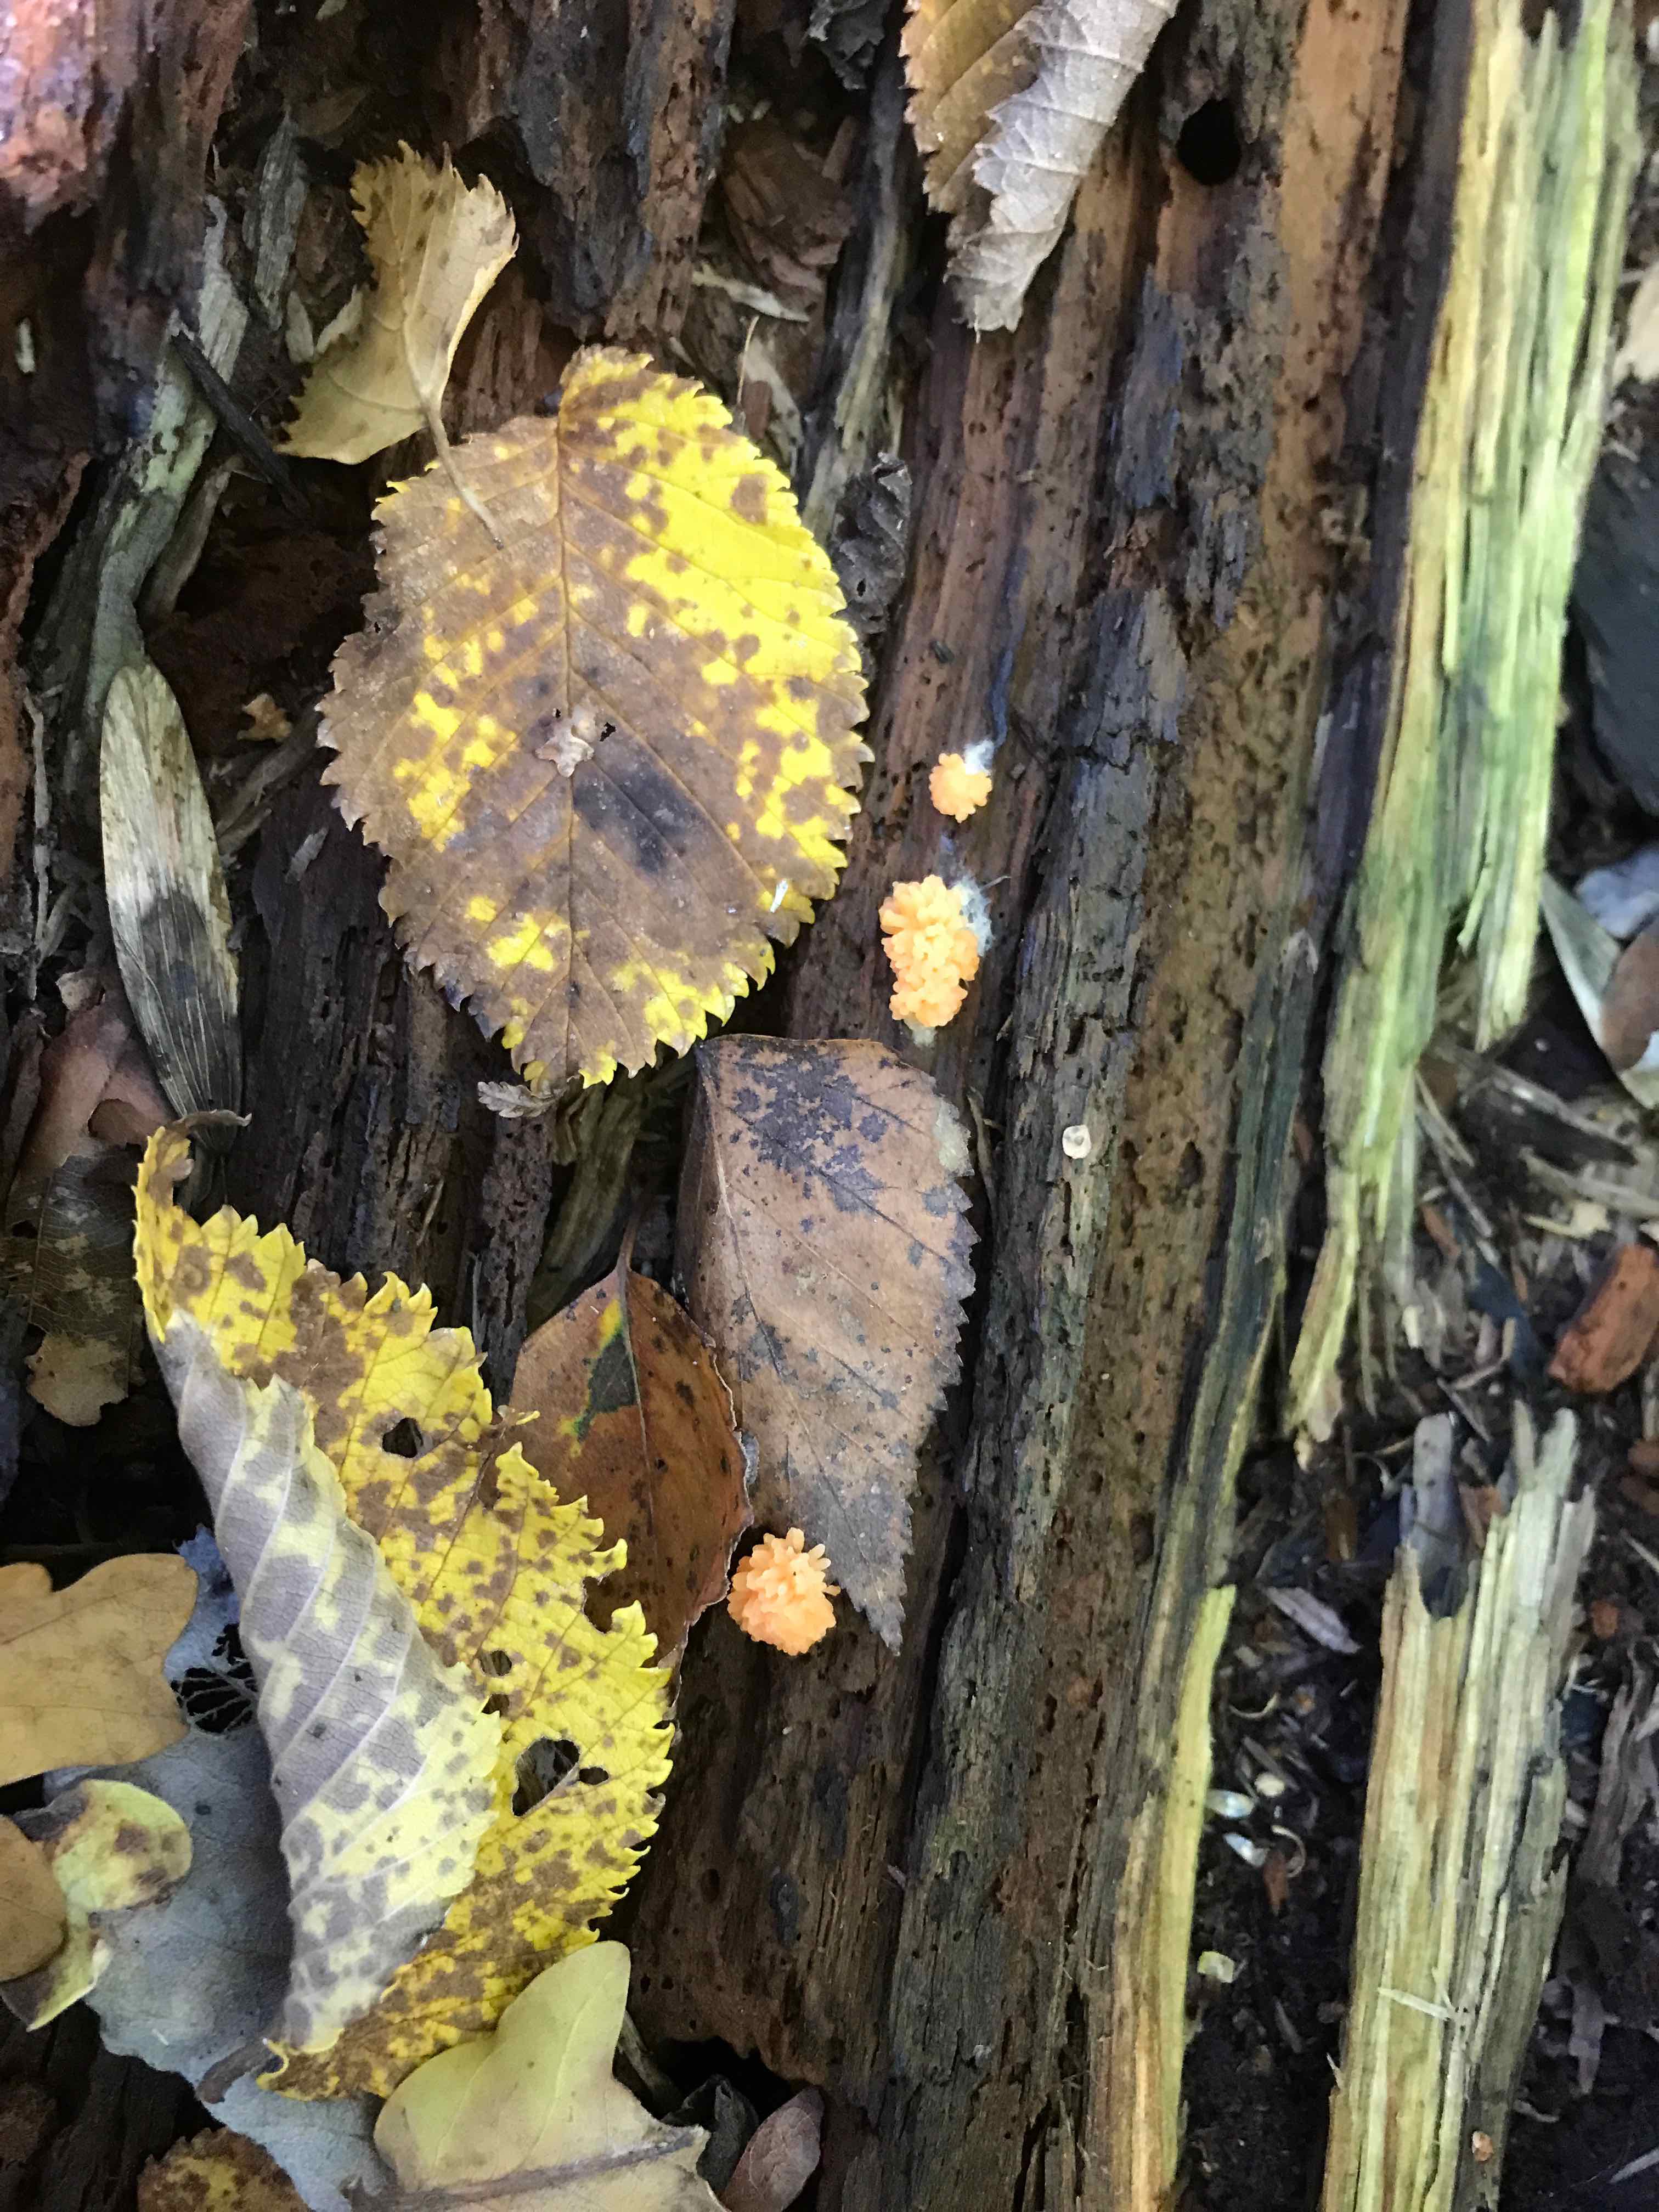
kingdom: Protozoa
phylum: Mycetozoa
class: Myxomycetes
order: Cribrariales
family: Tubiferaceae
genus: Tubifera
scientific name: Tubifera ferruginosa
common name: kanel-støvrør
